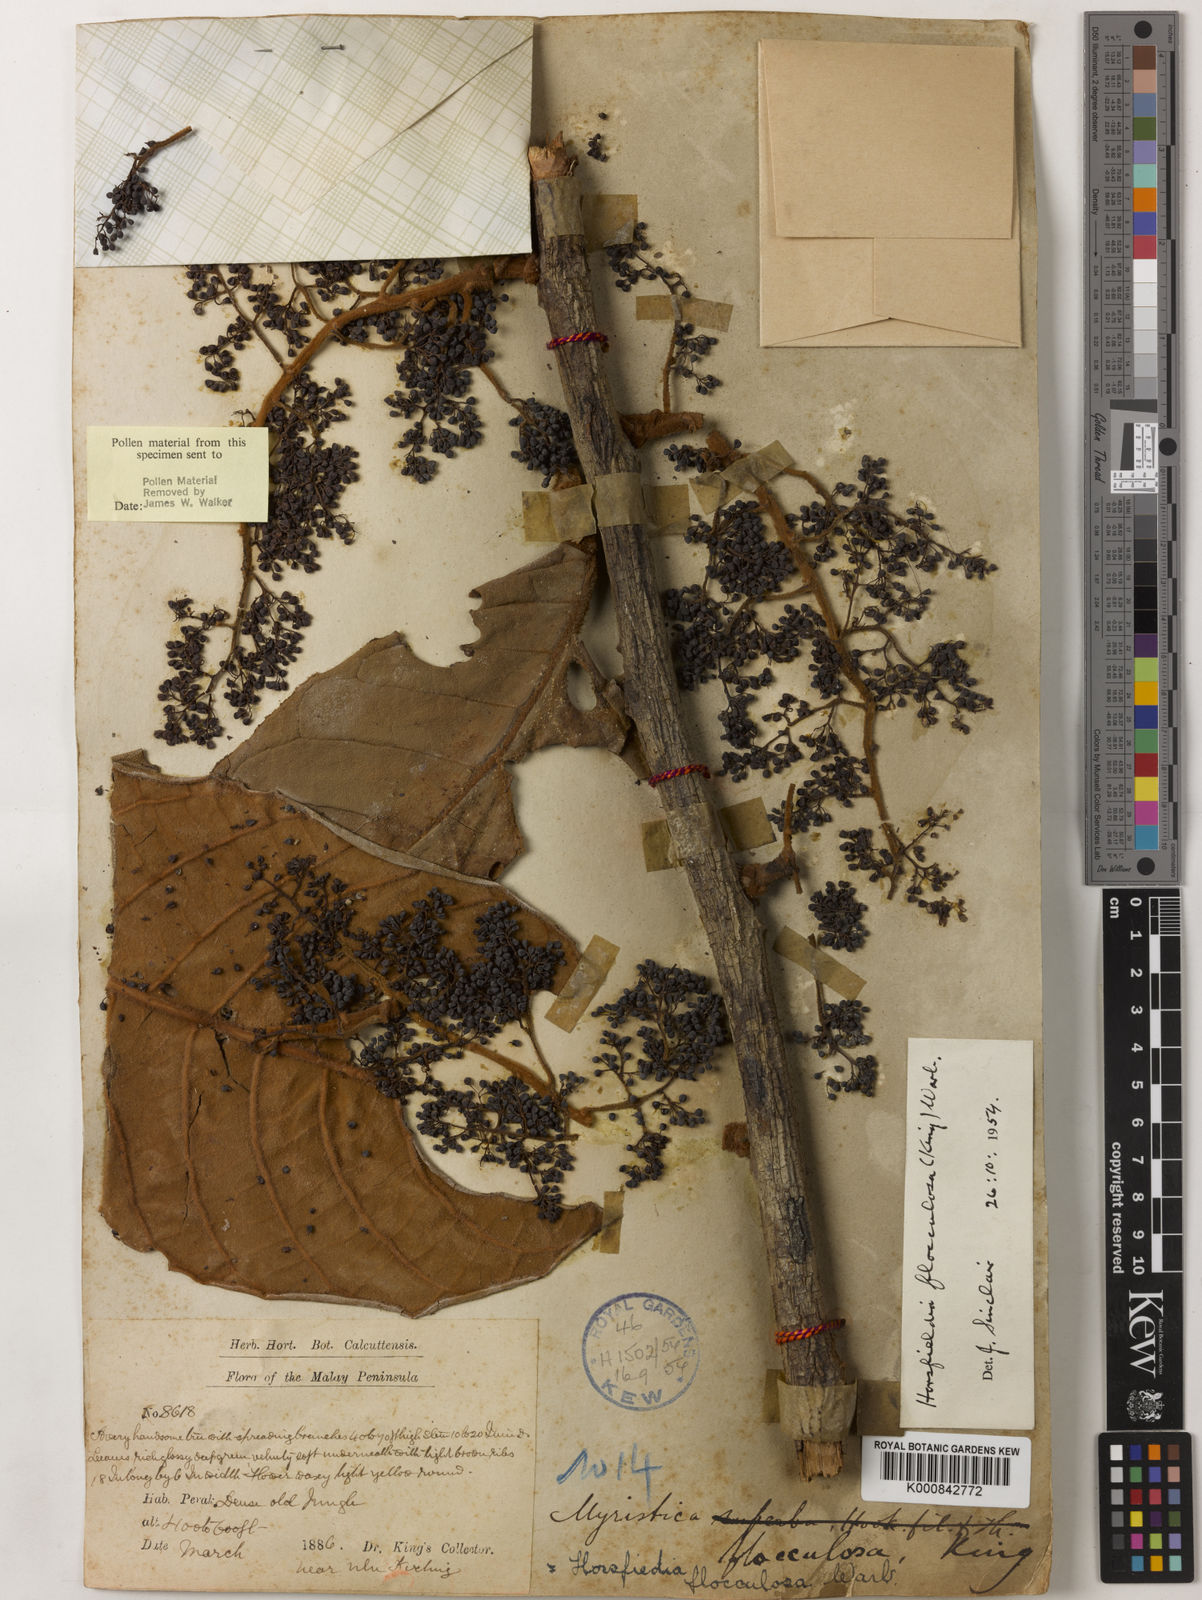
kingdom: Plantae
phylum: Tracheophyta
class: Magnoliopsida
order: Magnoliales
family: Myristicaceae
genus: Horsfieldia
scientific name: Horsfieldia flocculosa
